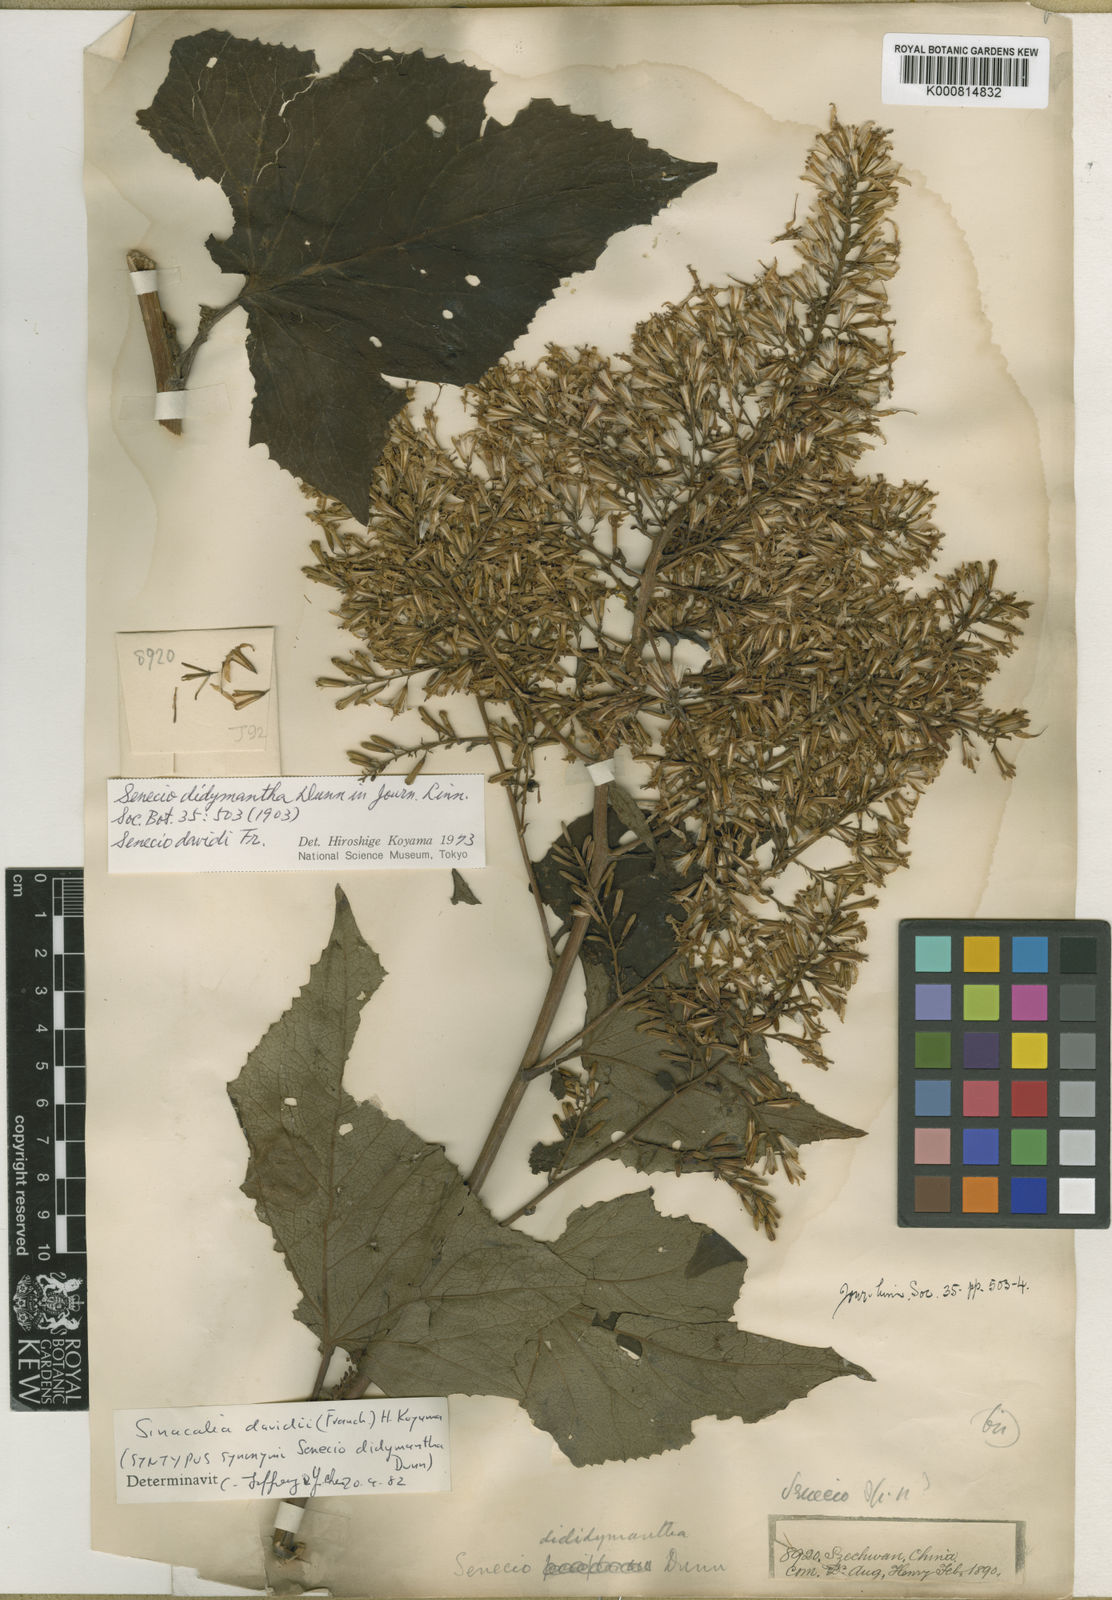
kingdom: Plantae
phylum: Tracheophyta
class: Magnoliopsida
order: Asterales
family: Asteraceae
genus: Sinacalia
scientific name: Sinacalia davidii
